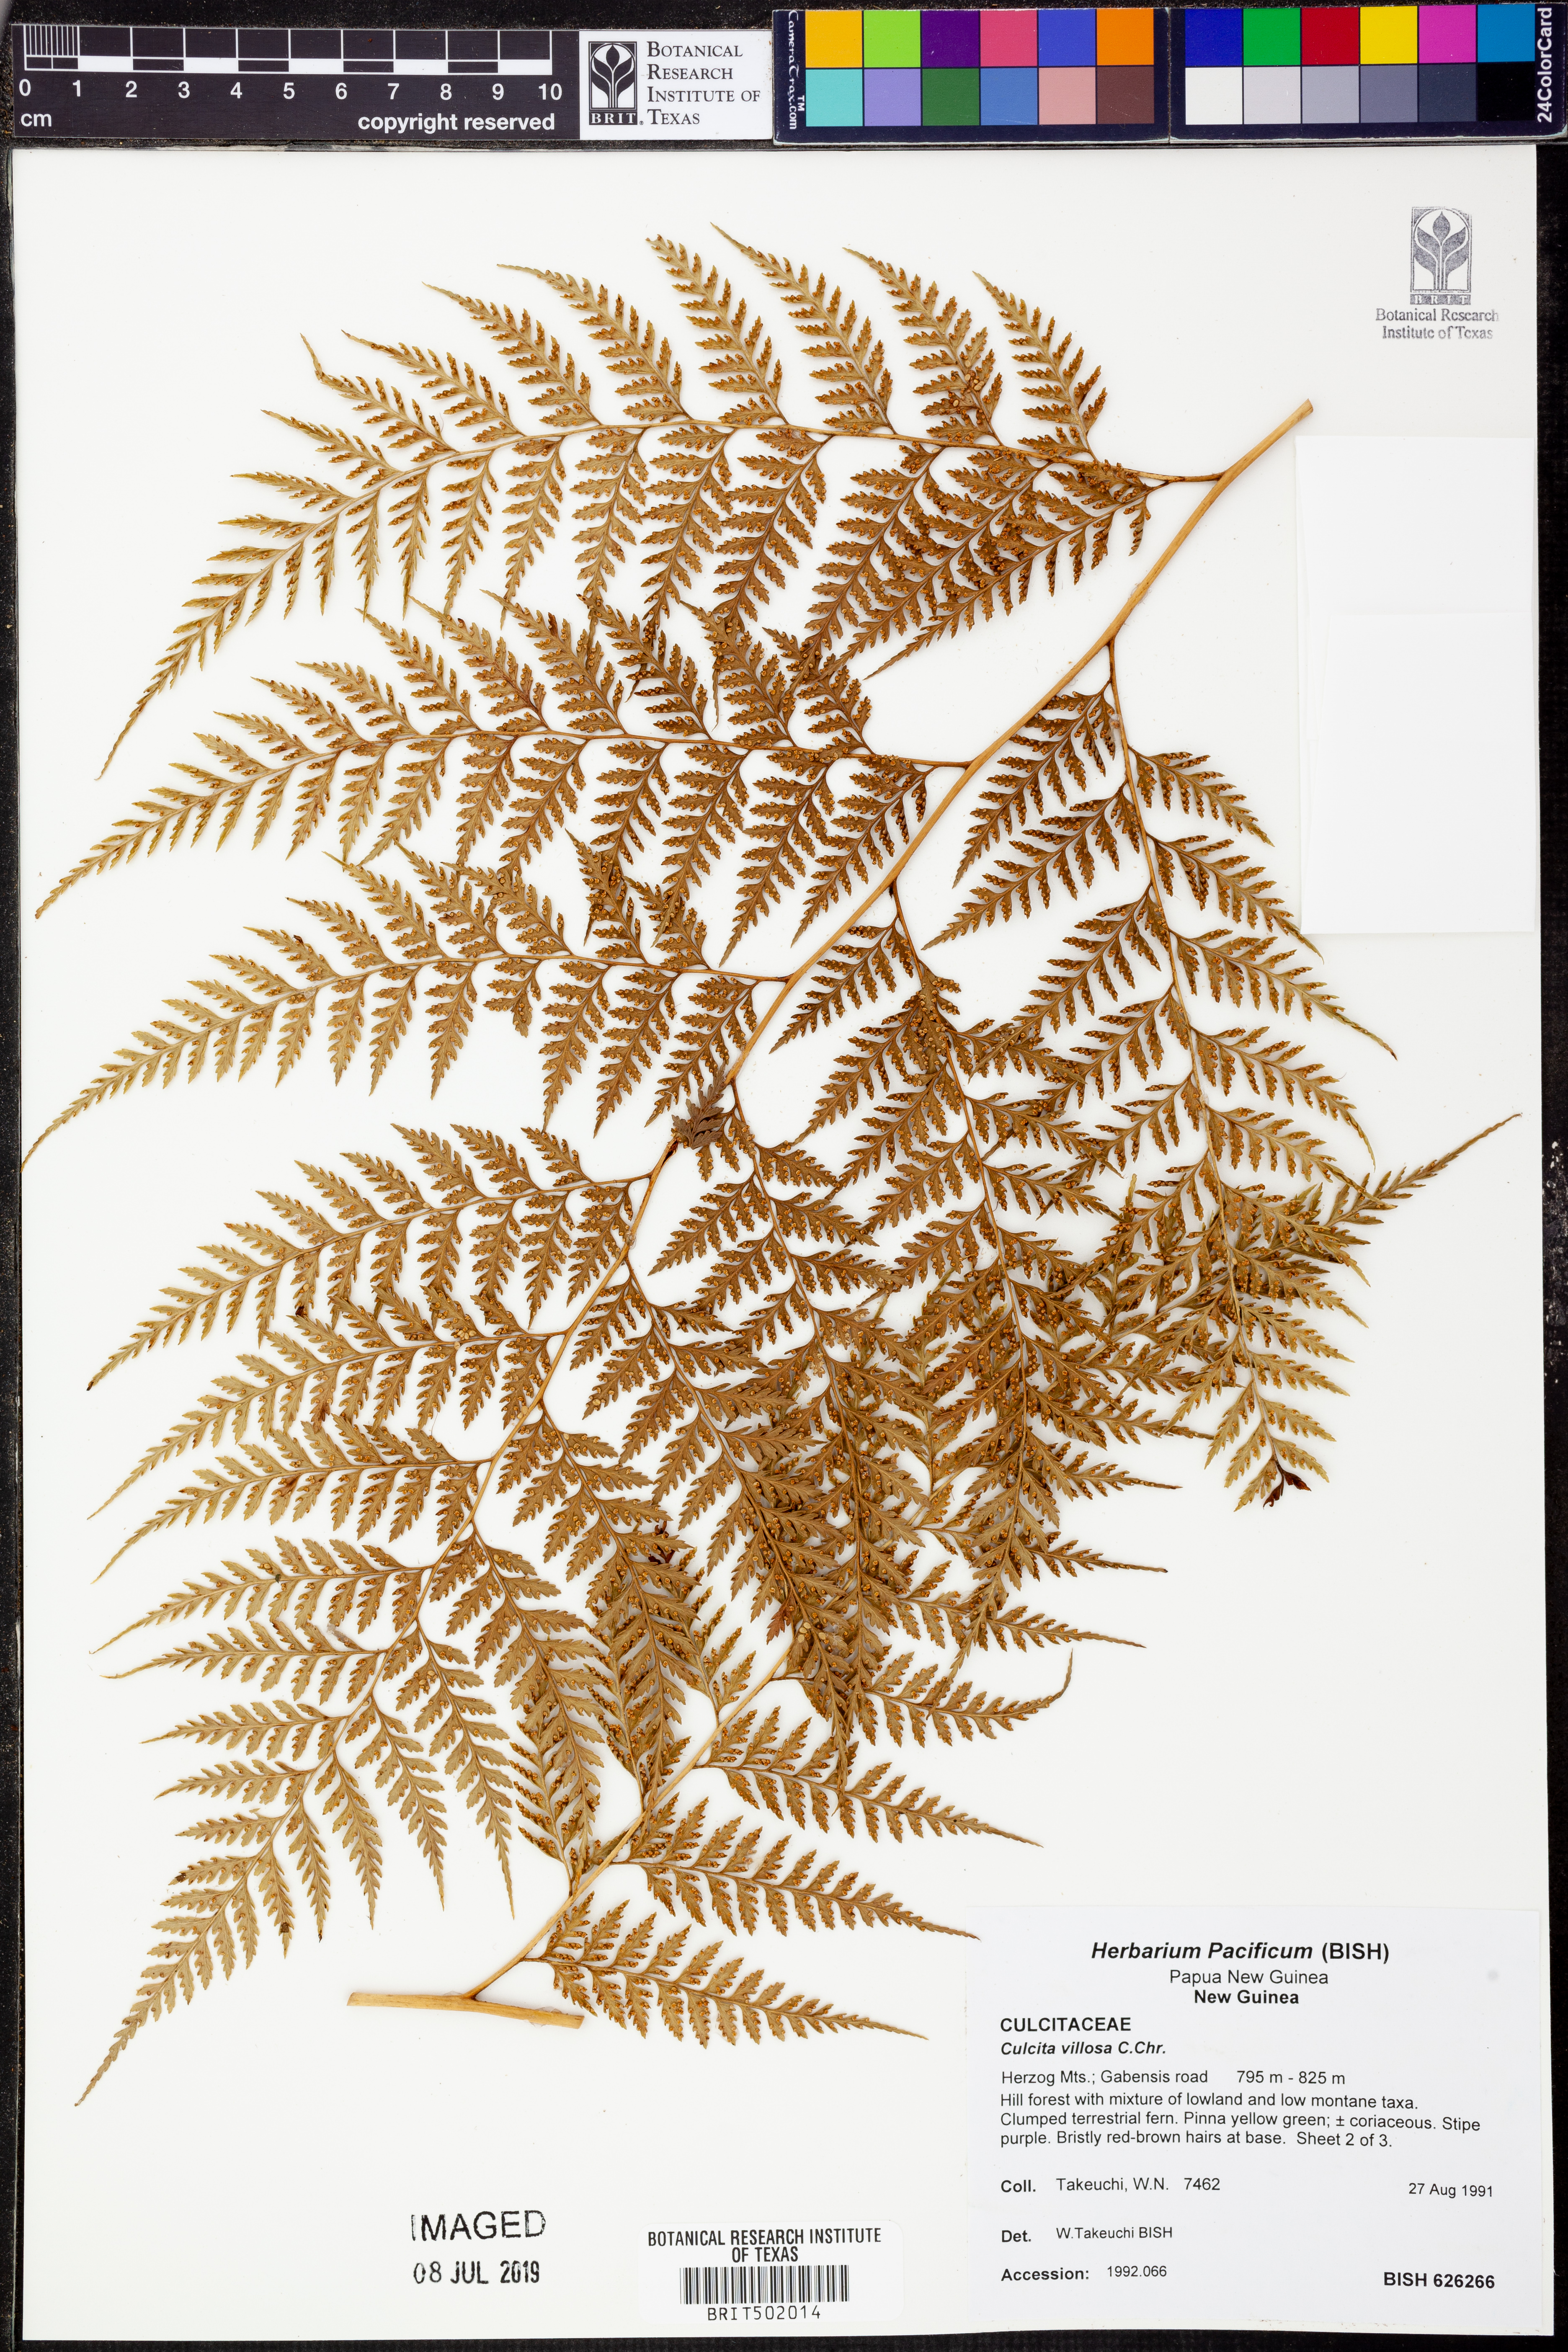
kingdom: Plantae
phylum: Tracheophyta
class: Polypodiopsida
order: Cyatheales
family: Dicksoniaceae
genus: Calochlaena
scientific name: Calochlaena villosa
